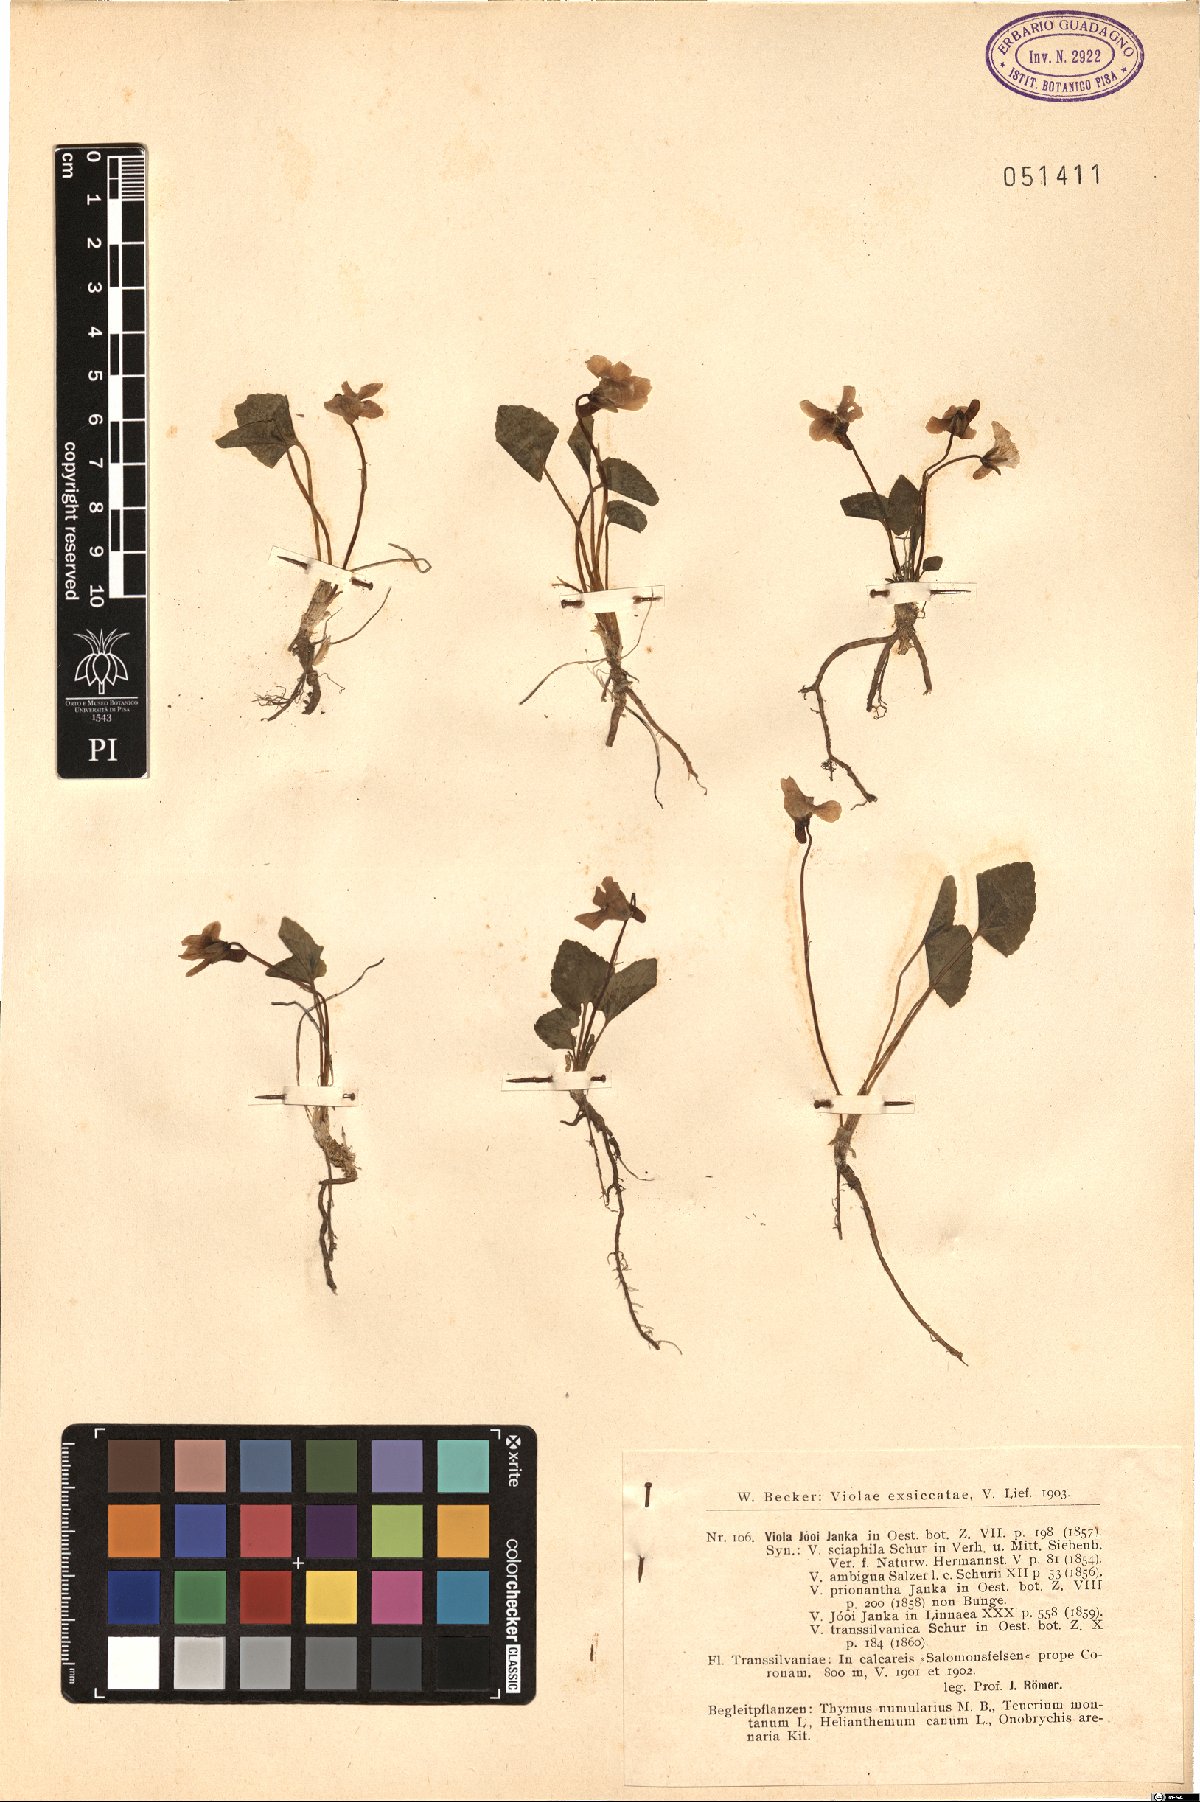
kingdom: Plantae
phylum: Tracheophyta
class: Magnoliopsida
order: Malpighiales
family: Violaceae
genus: Viola
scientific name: Viola jooi
